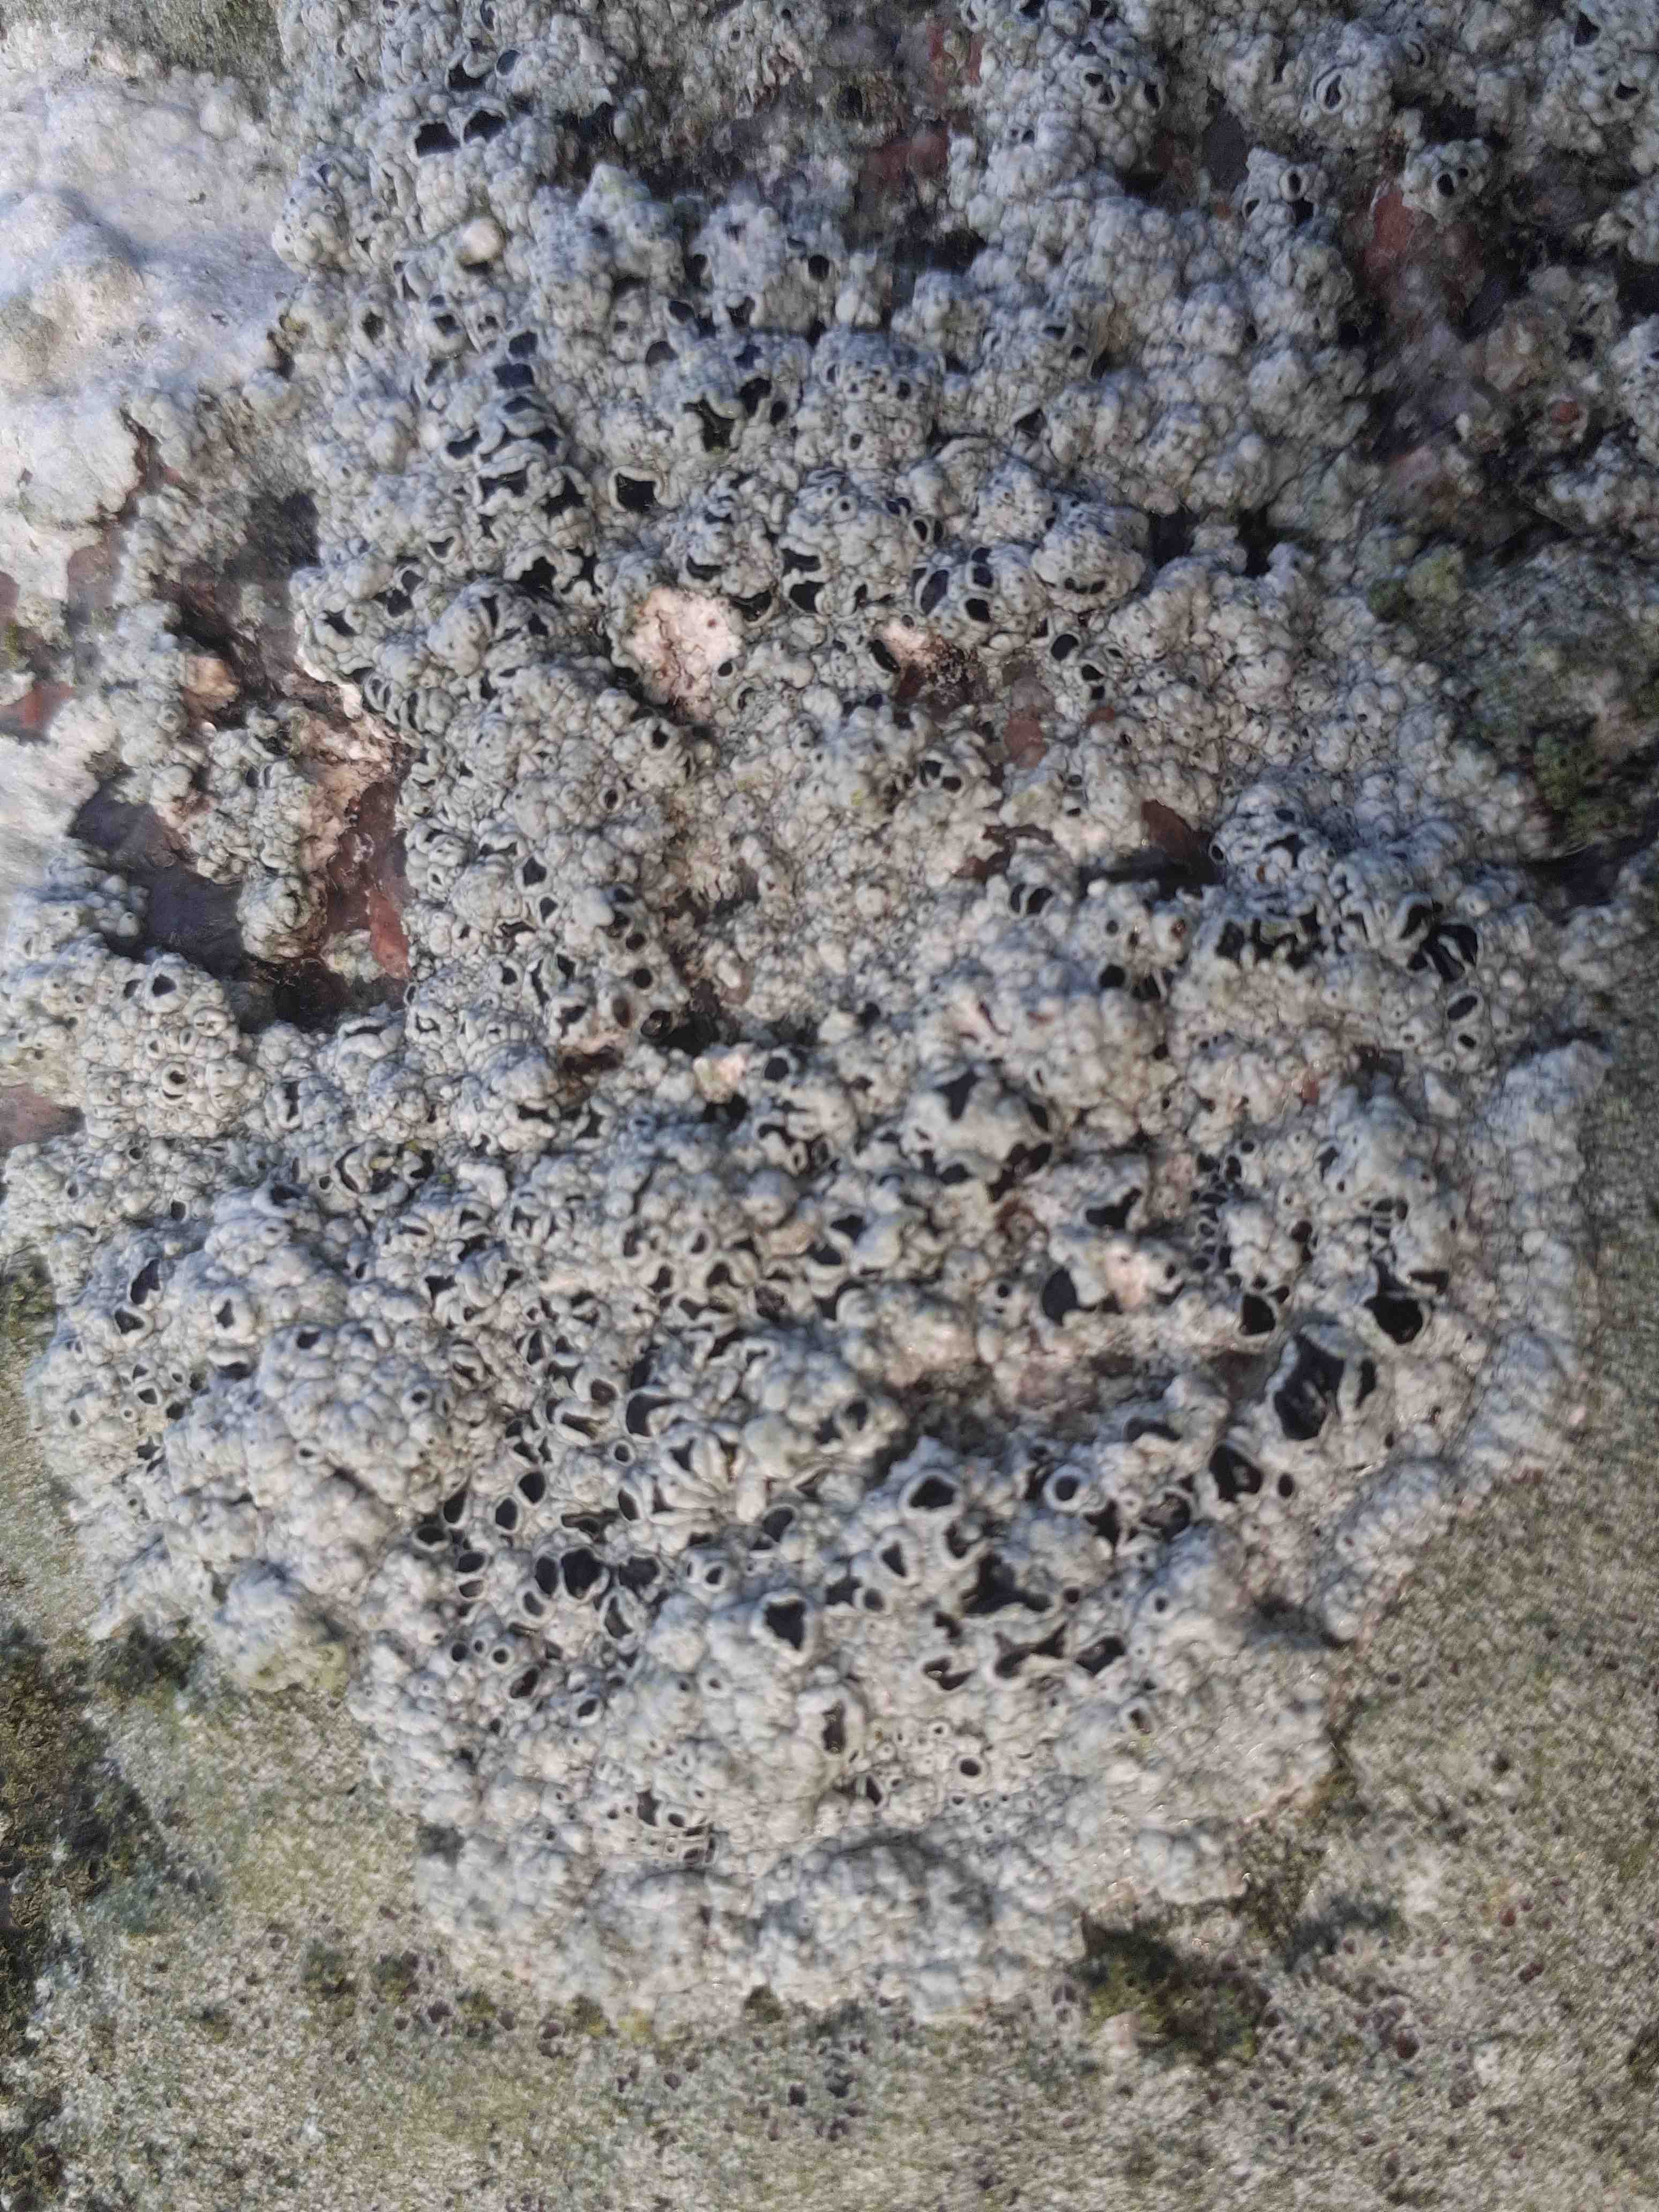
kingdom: Fungi
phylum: Ascomycota
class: Lecanoromycetes
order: Lecanorales
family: Tephromelataceae
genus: Tephromela
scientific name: Tephromela atra
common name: sortfrugtet kantskivelav
